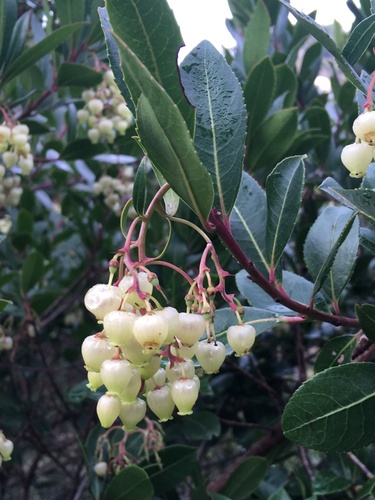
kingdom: Plantae
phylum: Tracheophyta
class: Magnoliopsida
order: Ericales
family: Ericaceae
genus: Arbutus
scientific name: Arbutus unedo
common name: Strawberry-tree
